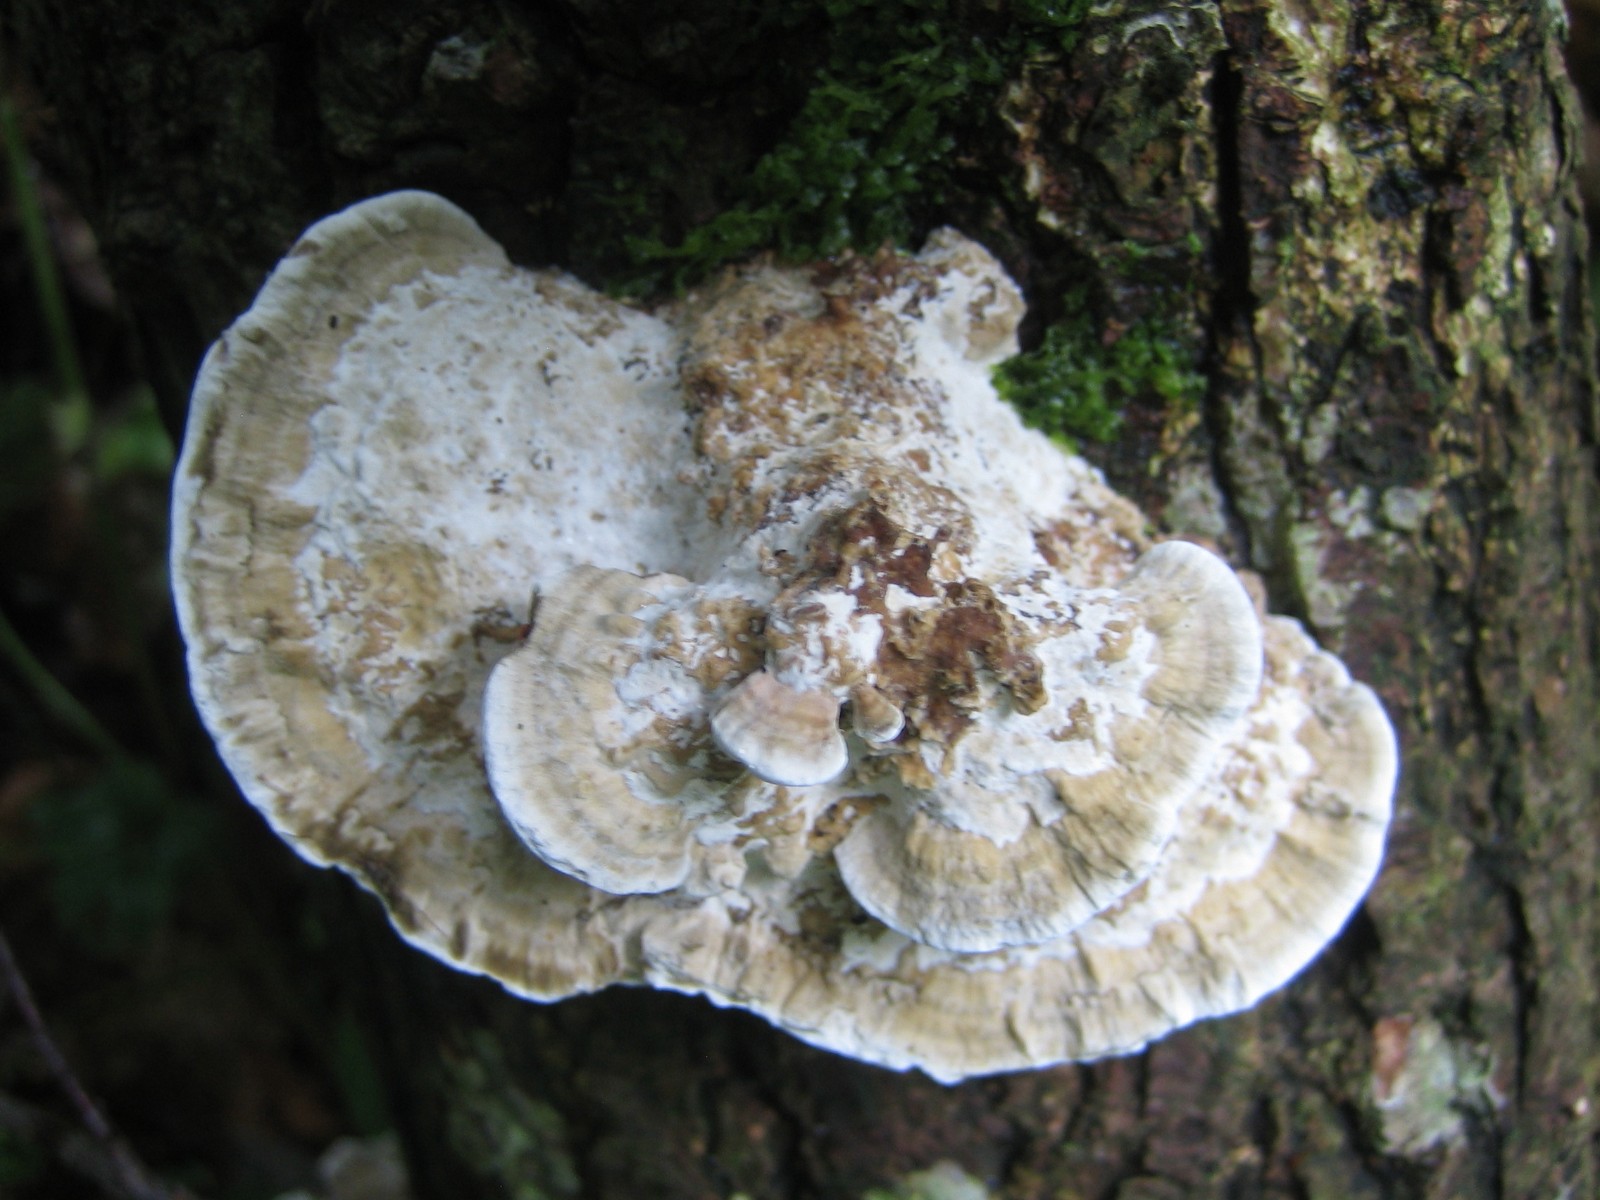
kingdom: Fungi
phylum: Basidiomycota
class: Agaricomycetes
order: Polyporales
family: Polyporaceae
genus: Daedaleopsis
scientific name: Daedaleopsis confragosa
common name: rødmende læderporesvamp
